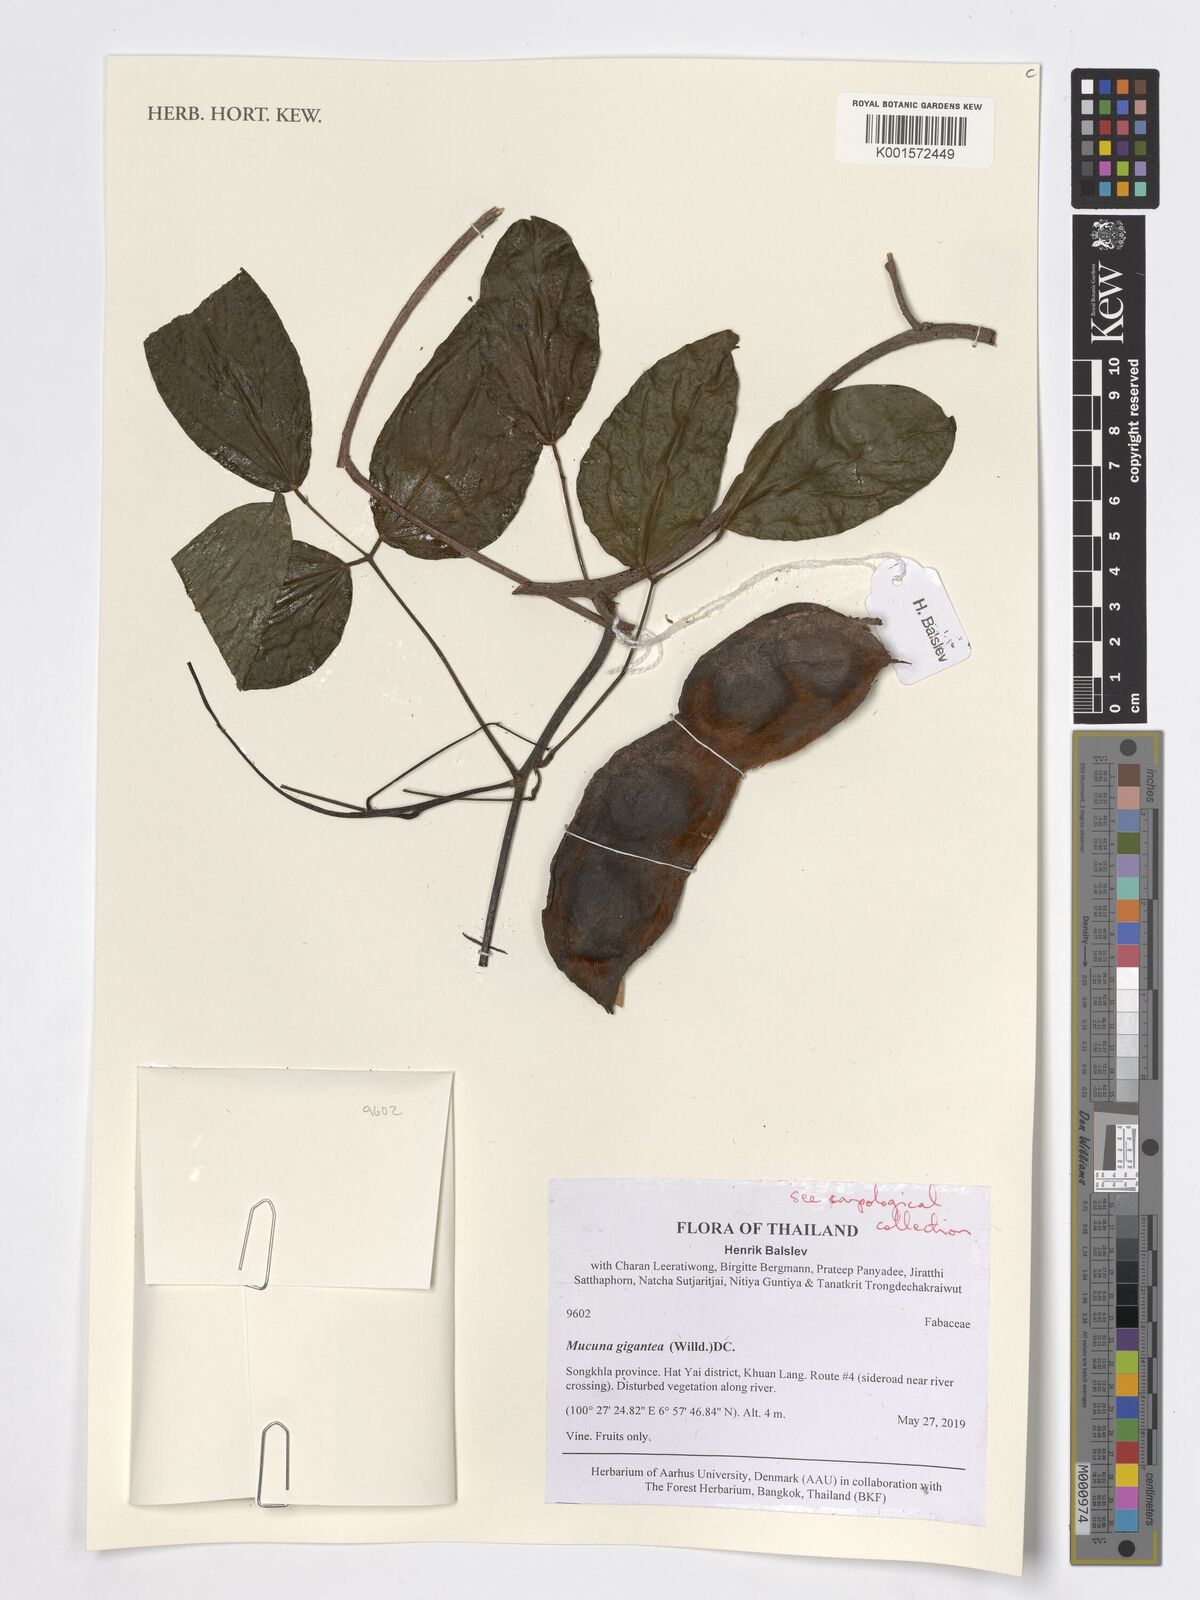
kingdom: Plantae
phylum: Tracheophyta
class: Magnoliopsida
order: Fabales
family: Fabaceae
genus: Mucuna
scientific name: Mucuna gigantea
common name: Black-bean
